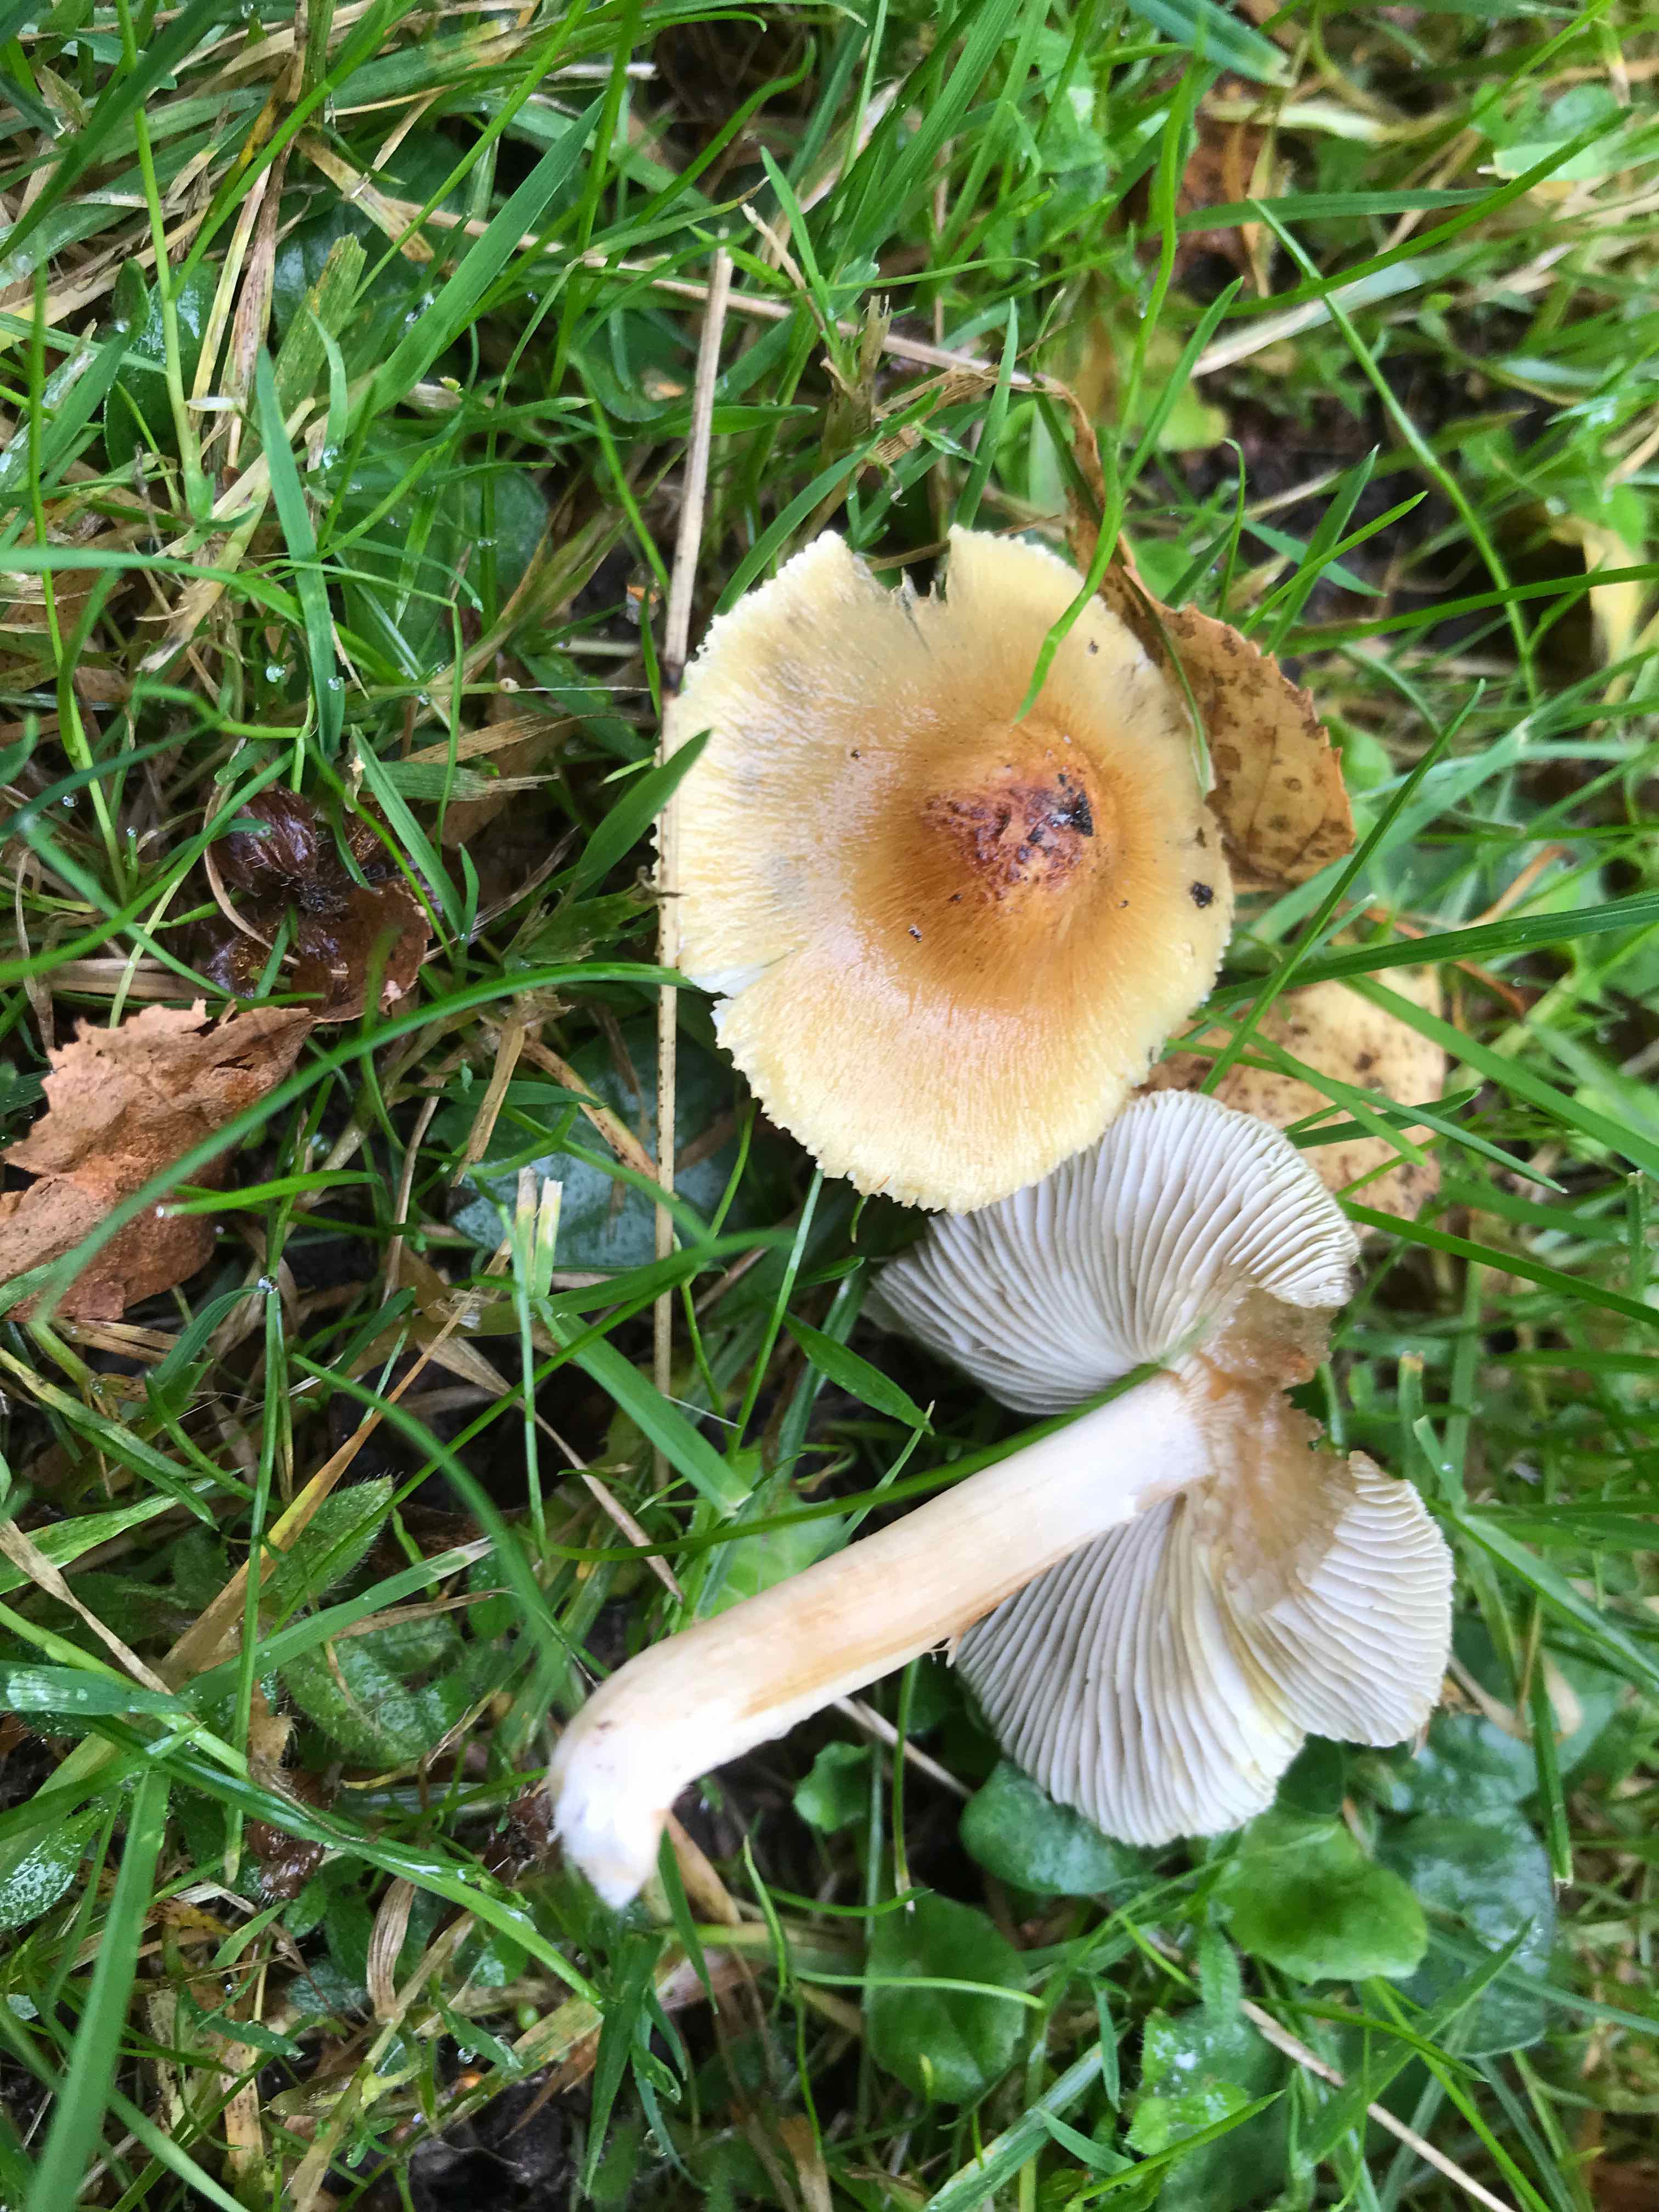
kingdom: Fungi
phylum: Basidiomycota
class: Agaricomycetes
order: Agaricales
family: Inocybaceae
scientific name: Inocybaceae
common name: trævlhatfamilien
